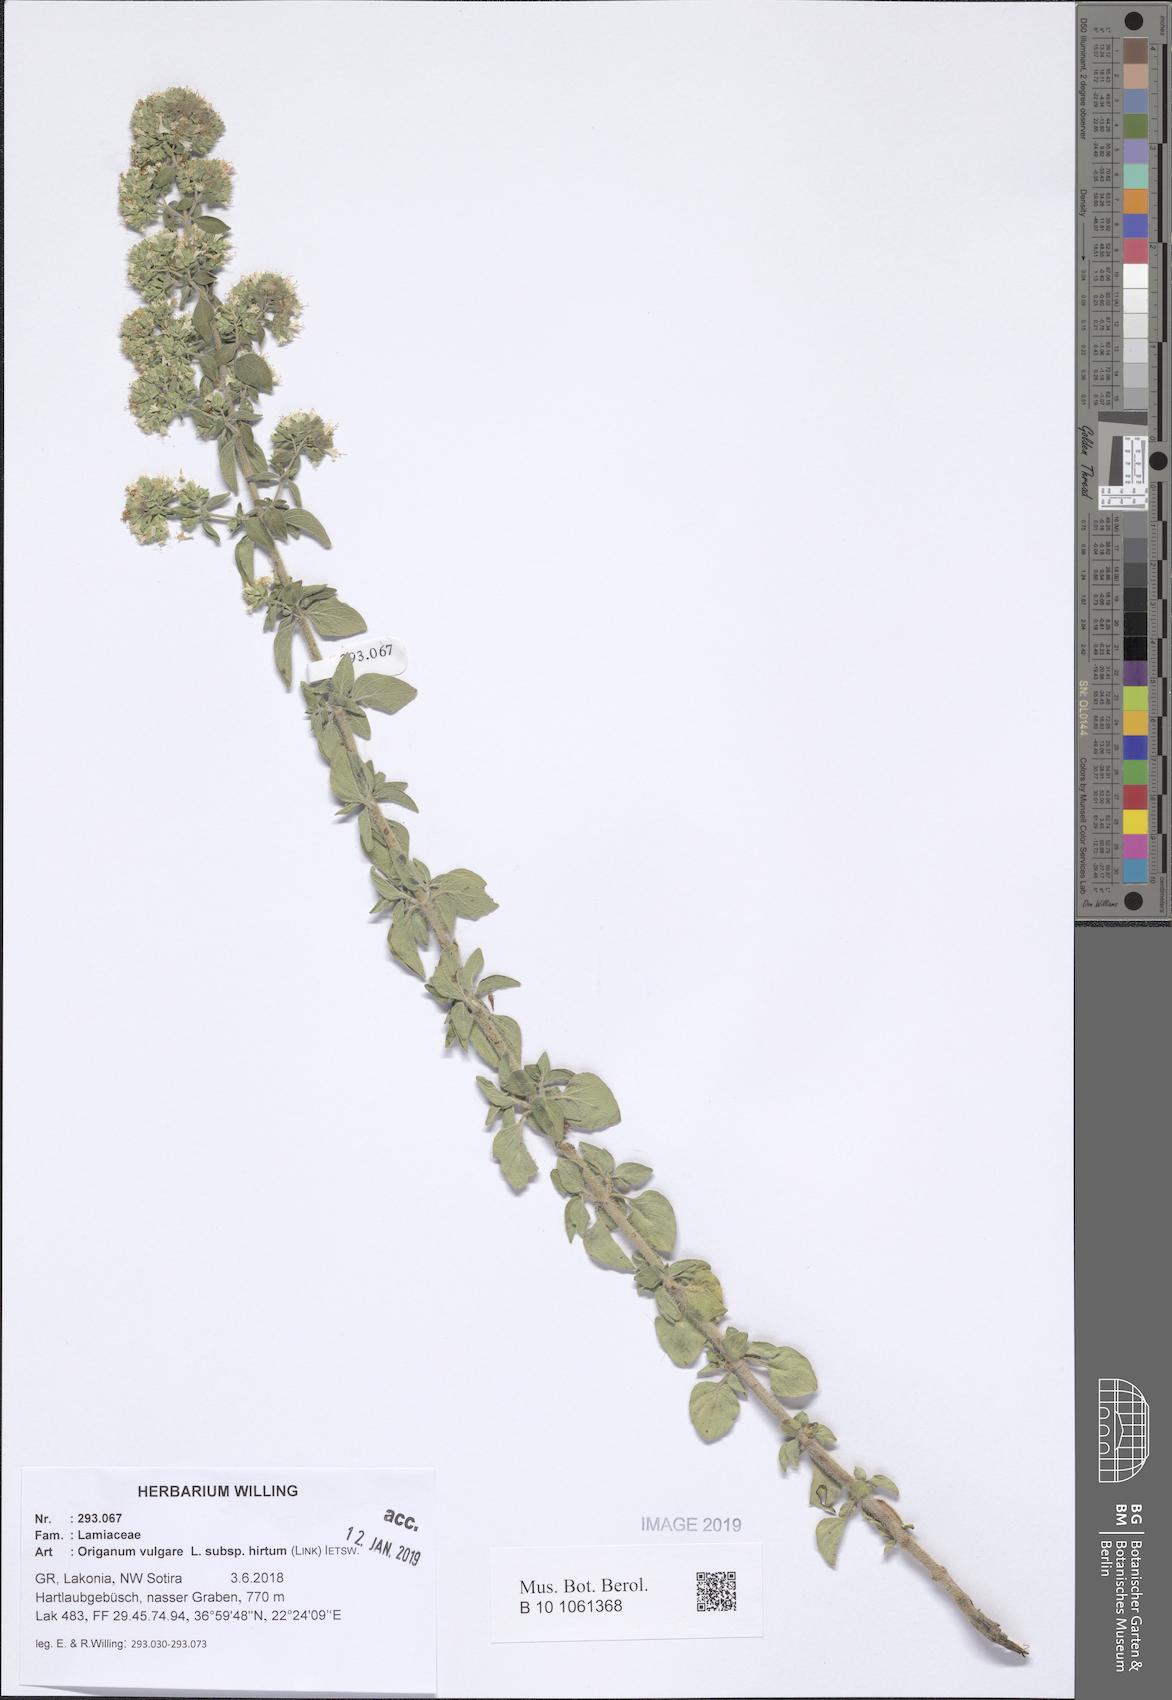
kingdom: Plantae
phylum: Tracheophyta
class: Magnoliopsida
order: Lamiales
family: Lamiaceae
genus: Origanum
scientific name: Origanum vulgare
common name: Wild marjoram
